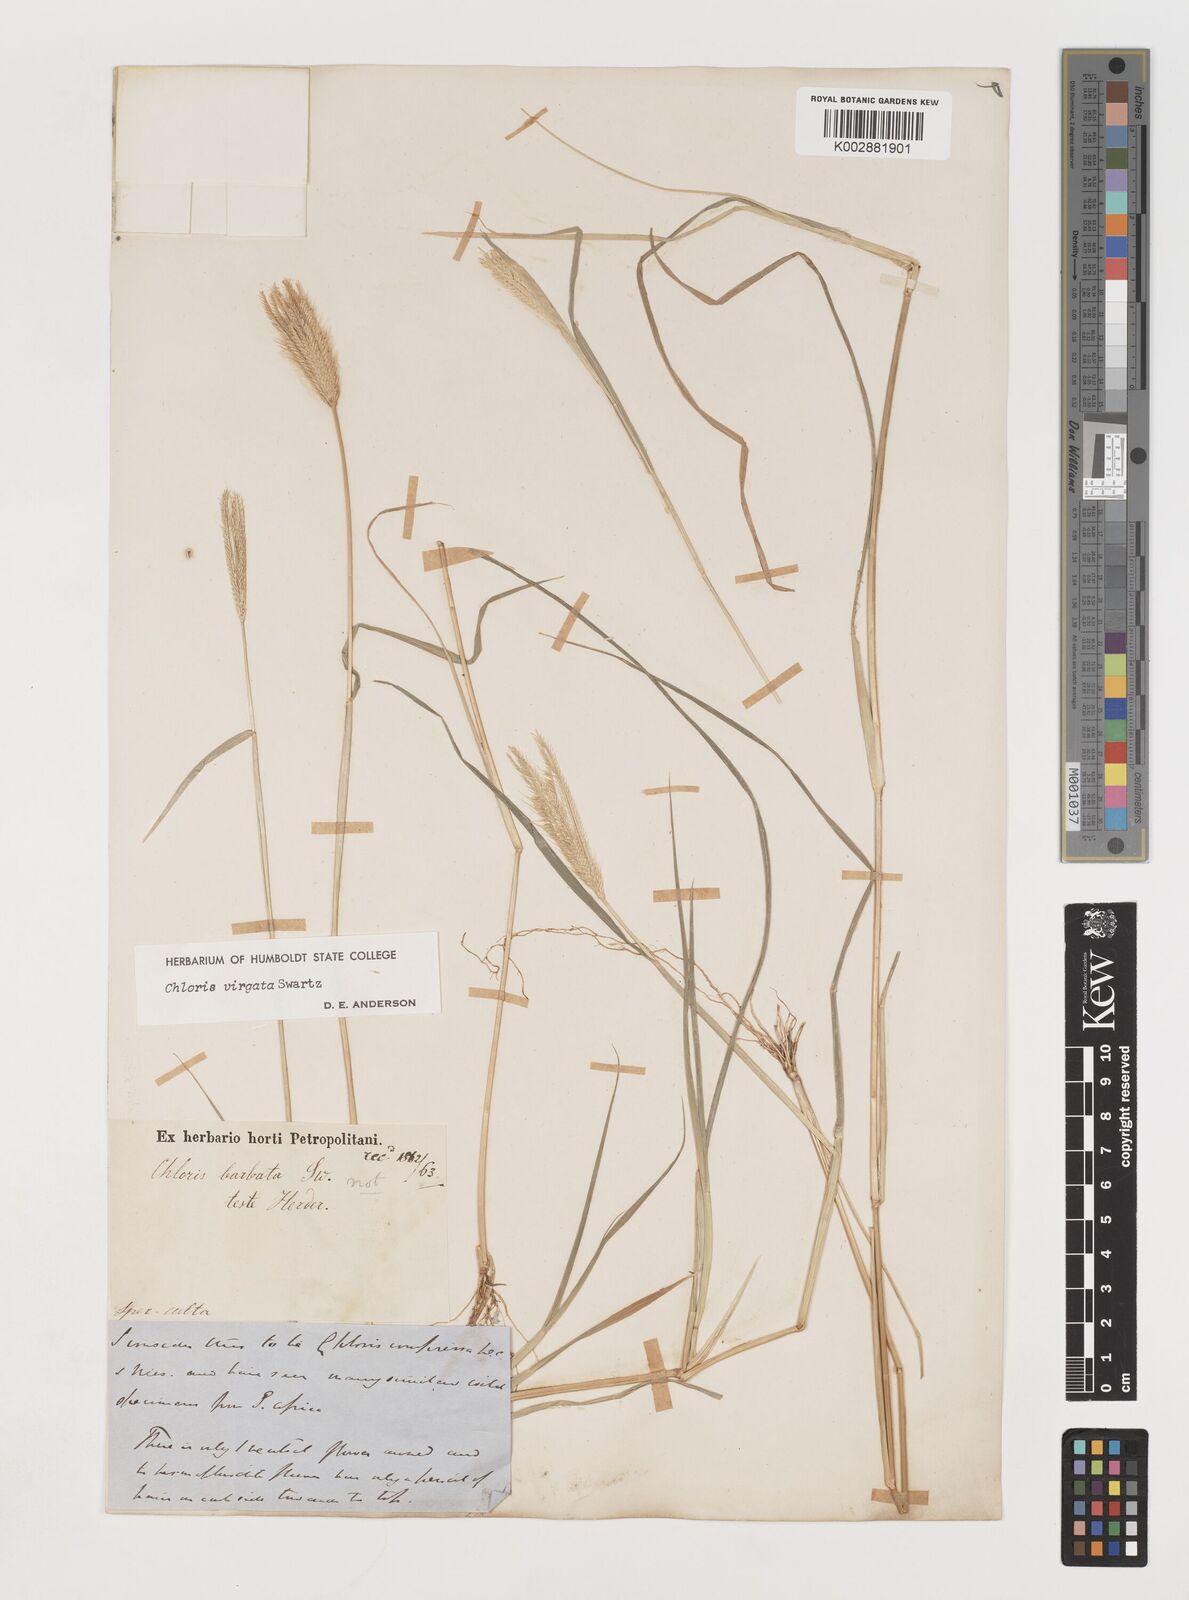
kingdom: Plantae
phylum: Tracheophyta
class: Liliopsida
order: Poales
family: Poaceae
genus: Chloris
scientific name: Chloris virgata
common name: Feathery rhodes-grass
